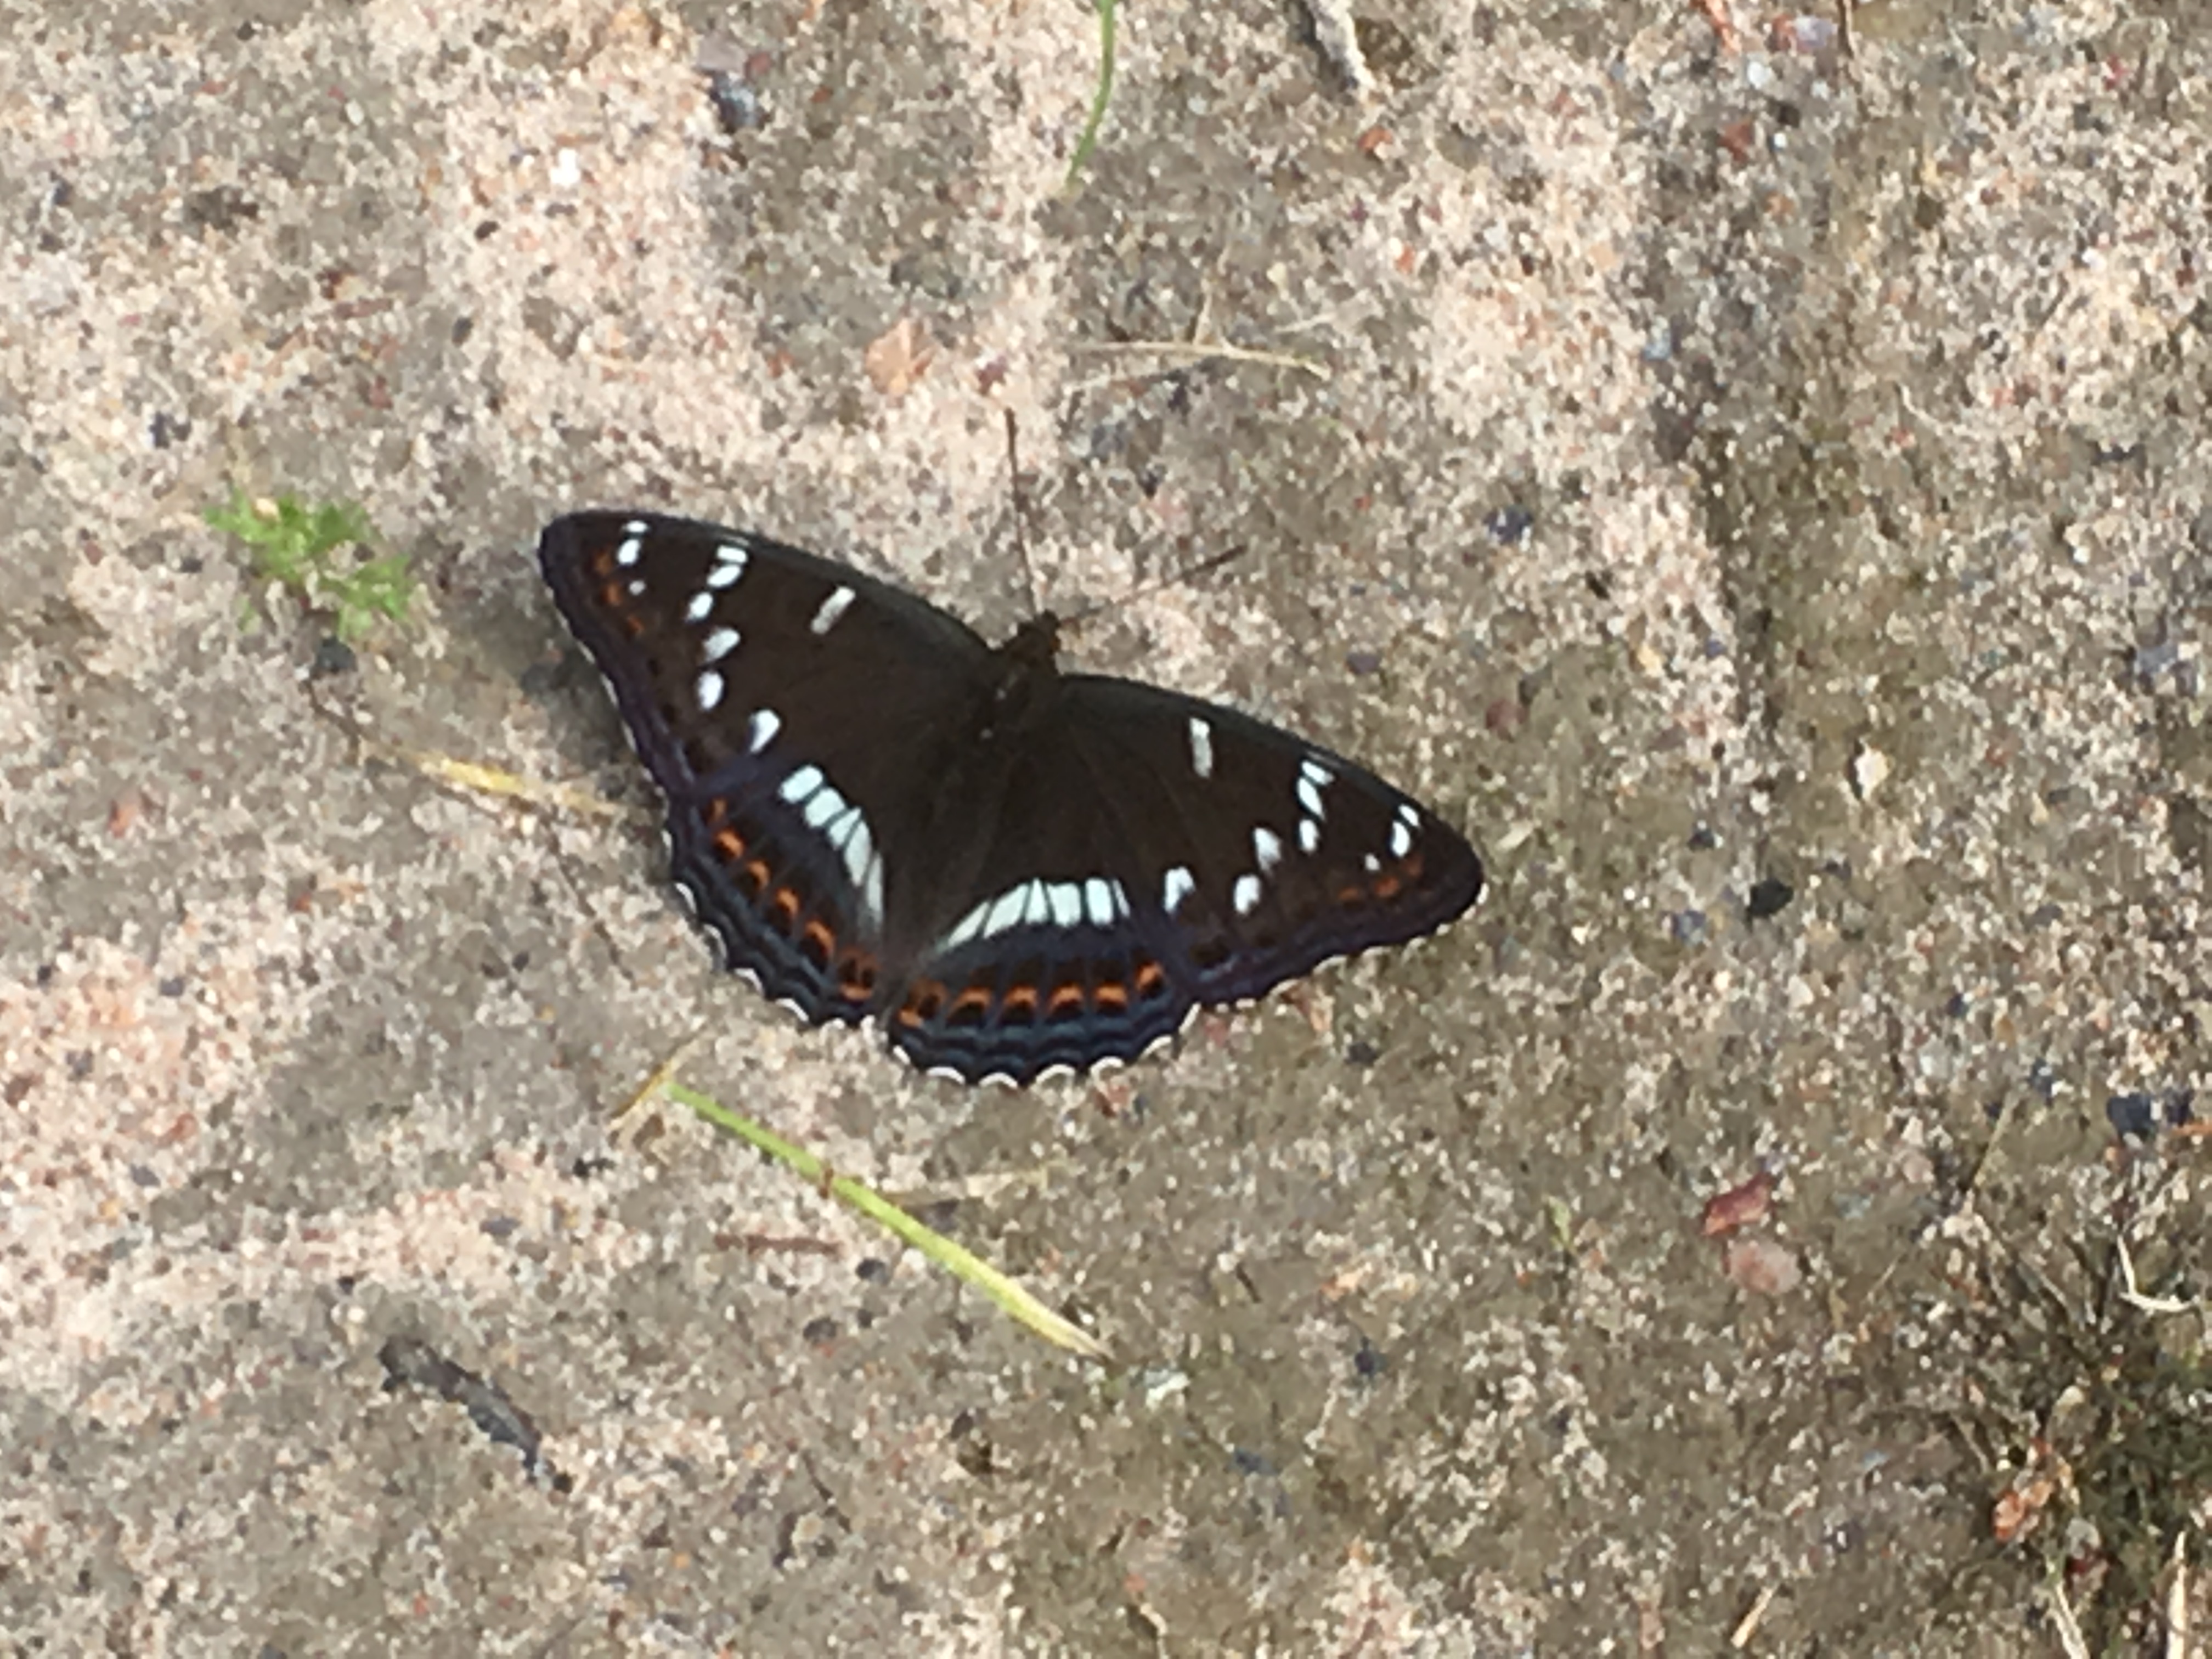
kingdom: Animalia
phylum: Arthropoda
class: Insecta
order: Lepidoptera
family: Nymphalidae
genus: Limenitis
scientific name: Limenitis populi
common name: Poplar admiral
